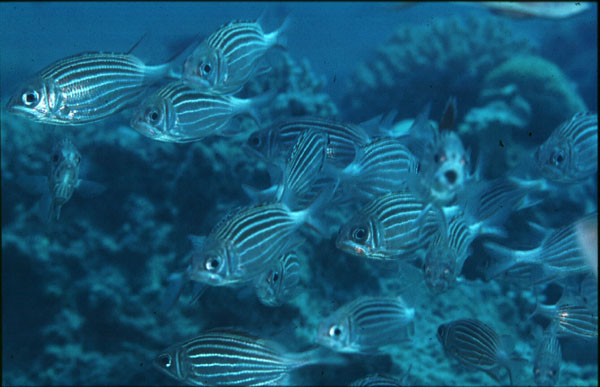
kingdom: Animalia
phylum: Chordata
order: Beryciformes
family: Holocentridae
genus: Sargocentron
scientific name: Sargocentron diadema
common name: Crown squirrelfish
